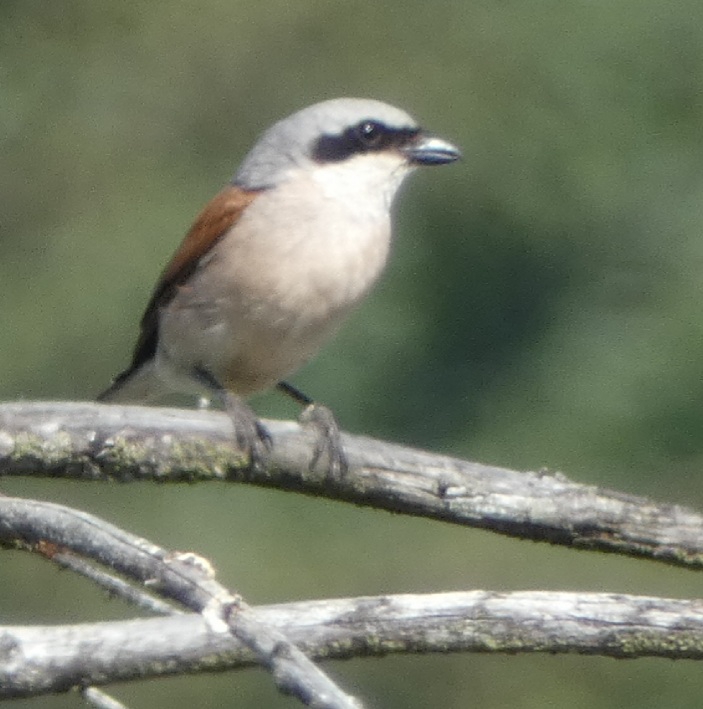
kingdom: Animalia
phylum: Chordata
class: Aves
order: Passeriformes
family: Laniidae
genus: Lanius
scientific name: Lanius collurio
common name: Rødrygget tornskade
